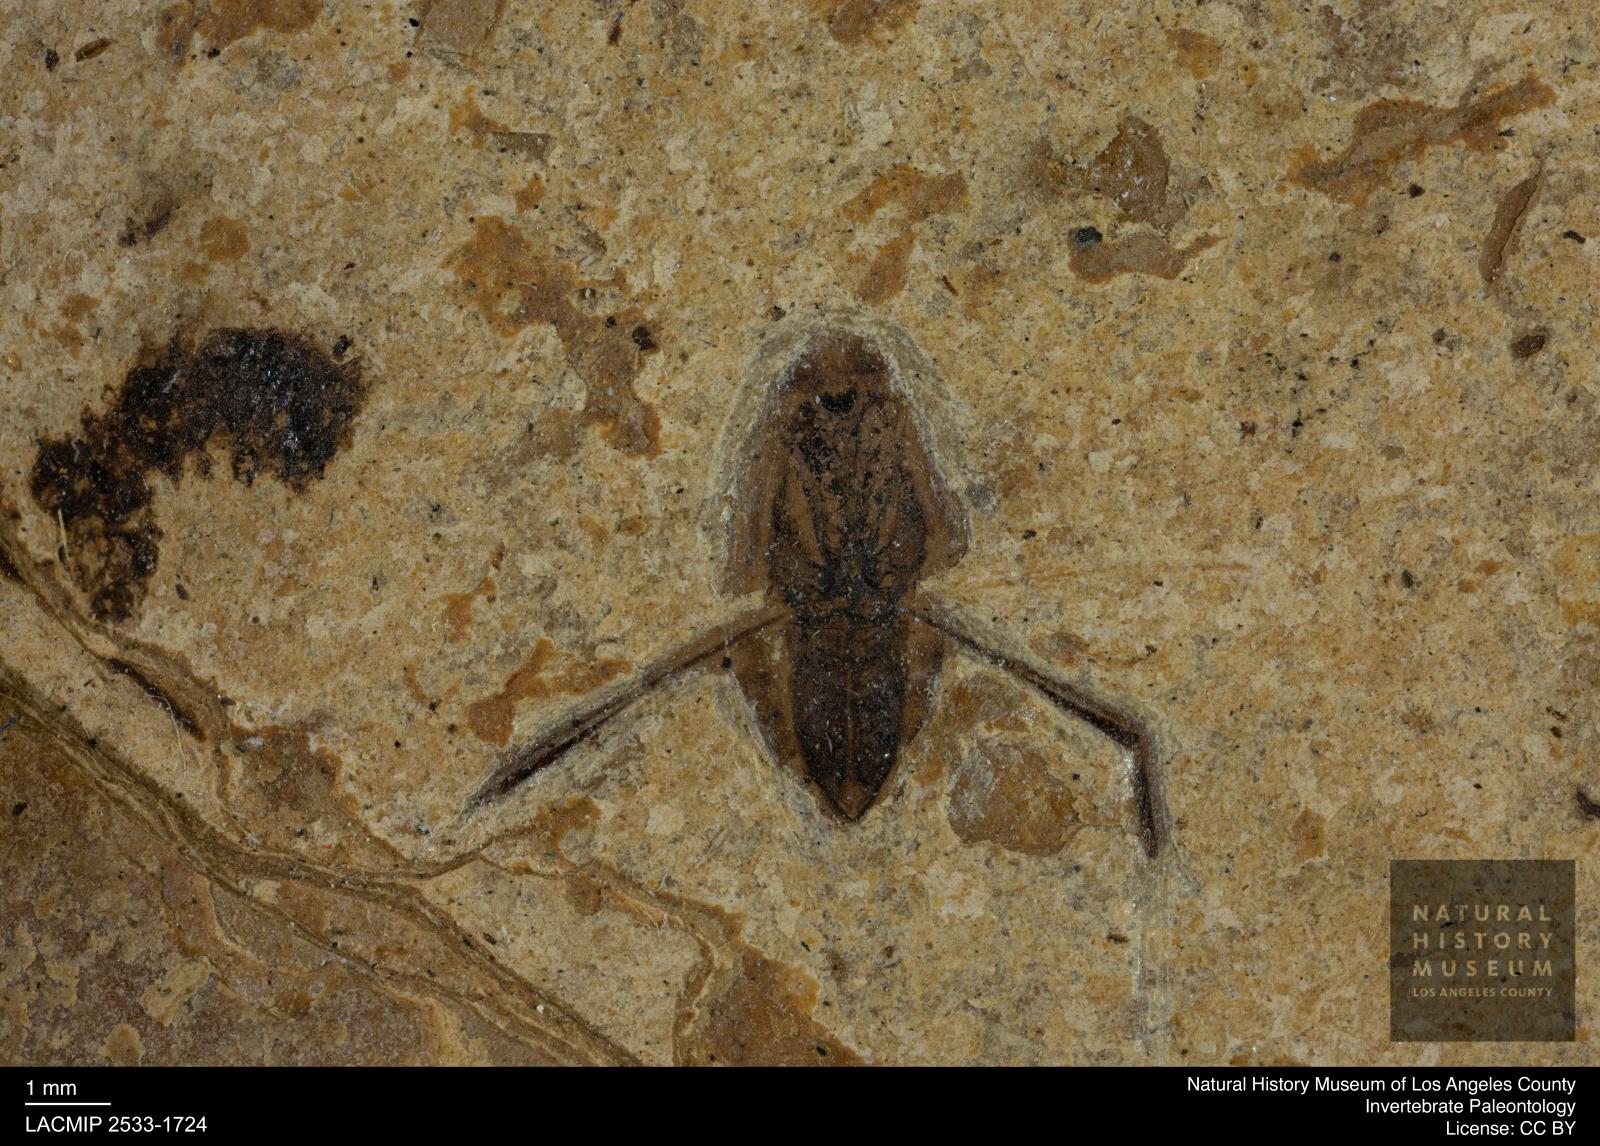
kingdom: Animalia
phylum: Arthropoda
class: Insecta
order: Hemiptera
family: Notonectidae
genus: Notonecta
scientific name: Notonecta
